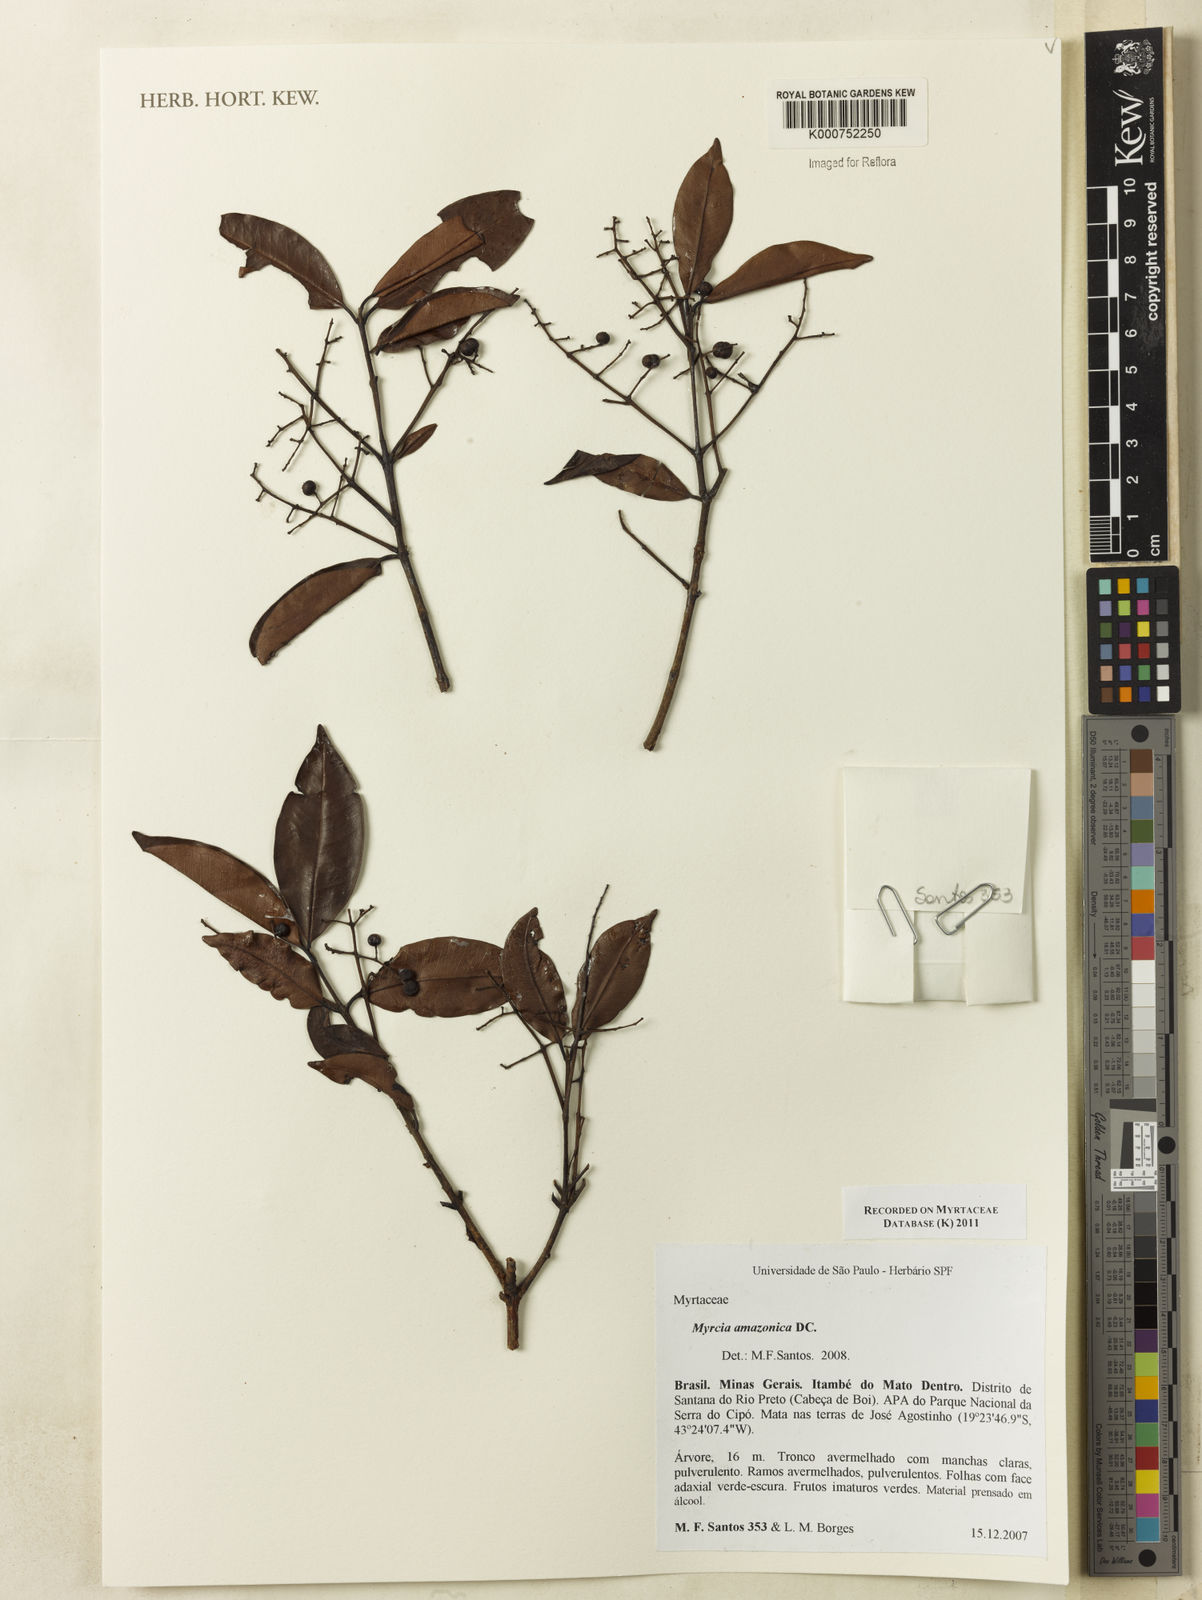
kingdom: Plantae
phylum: Tracheophyta
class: Magnoliopsida
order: Myrtales
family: Myrtaceae
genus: Myrcia
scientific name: Myrcia amazonica
